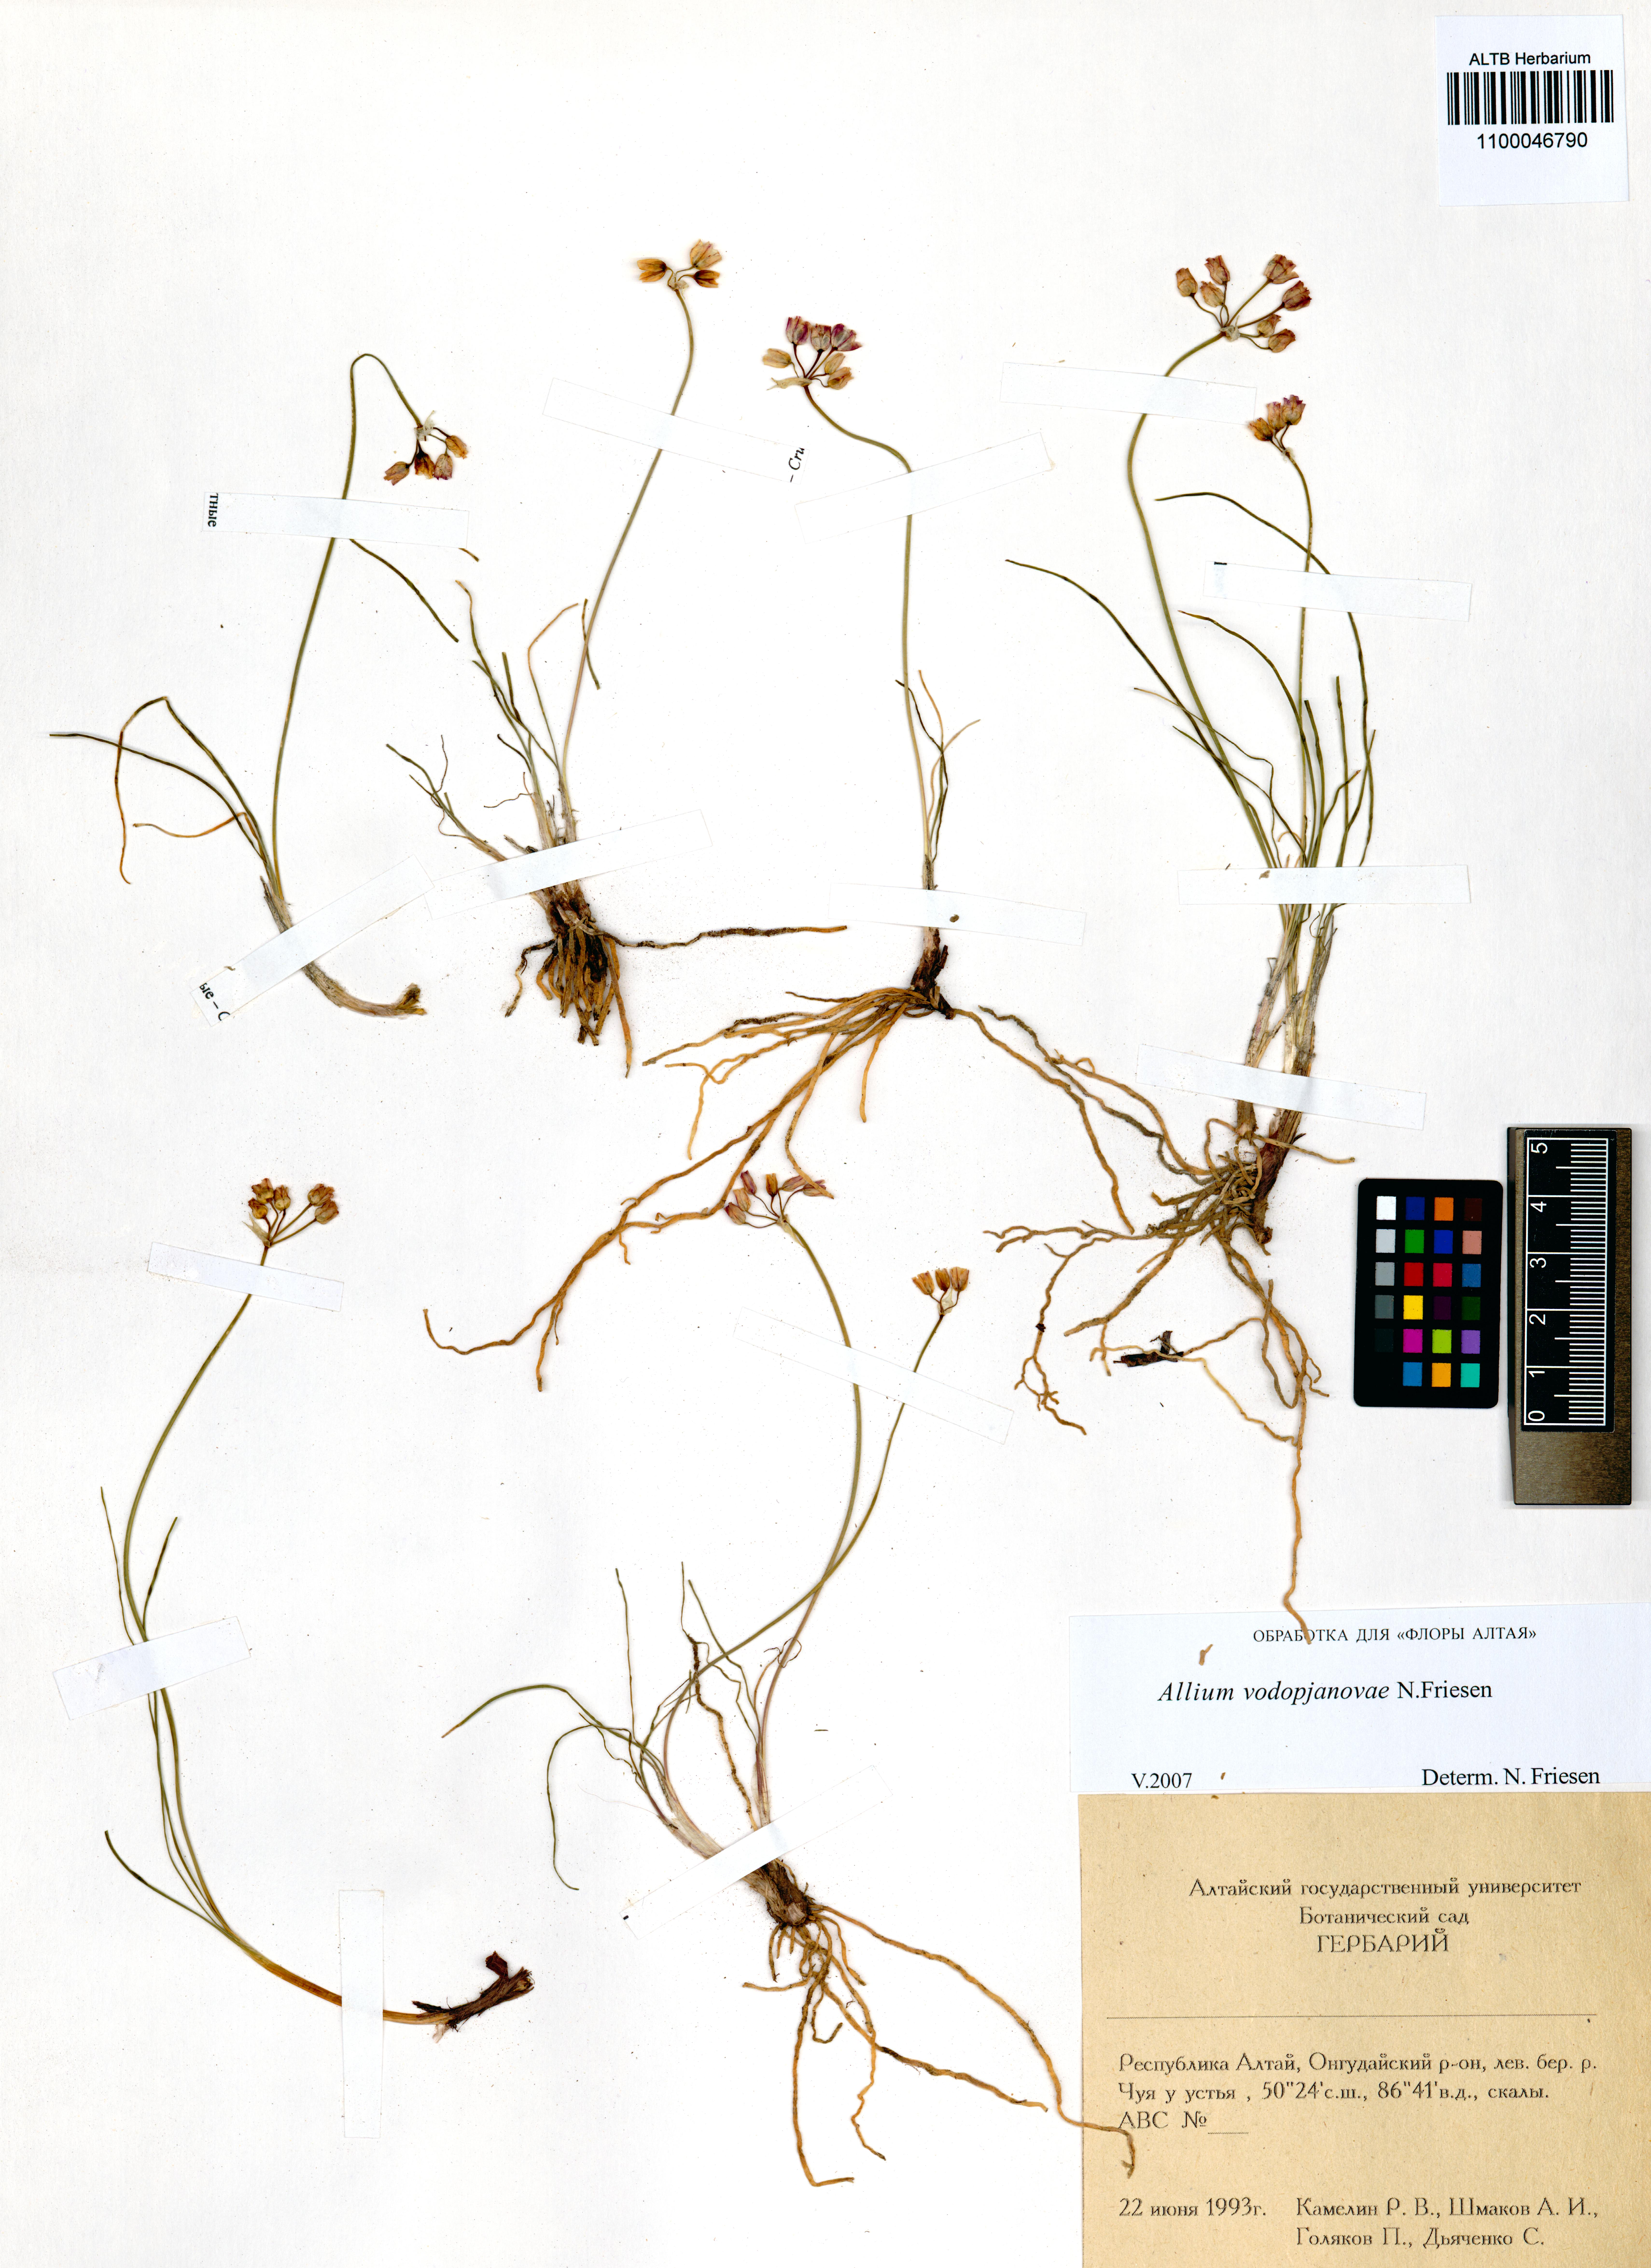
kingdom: Plantae
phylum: Tracheophyta
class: Liliopsida
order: Asparagales
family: Amaryllidaceae
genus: Allium
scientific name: Allium vodopjanovae
